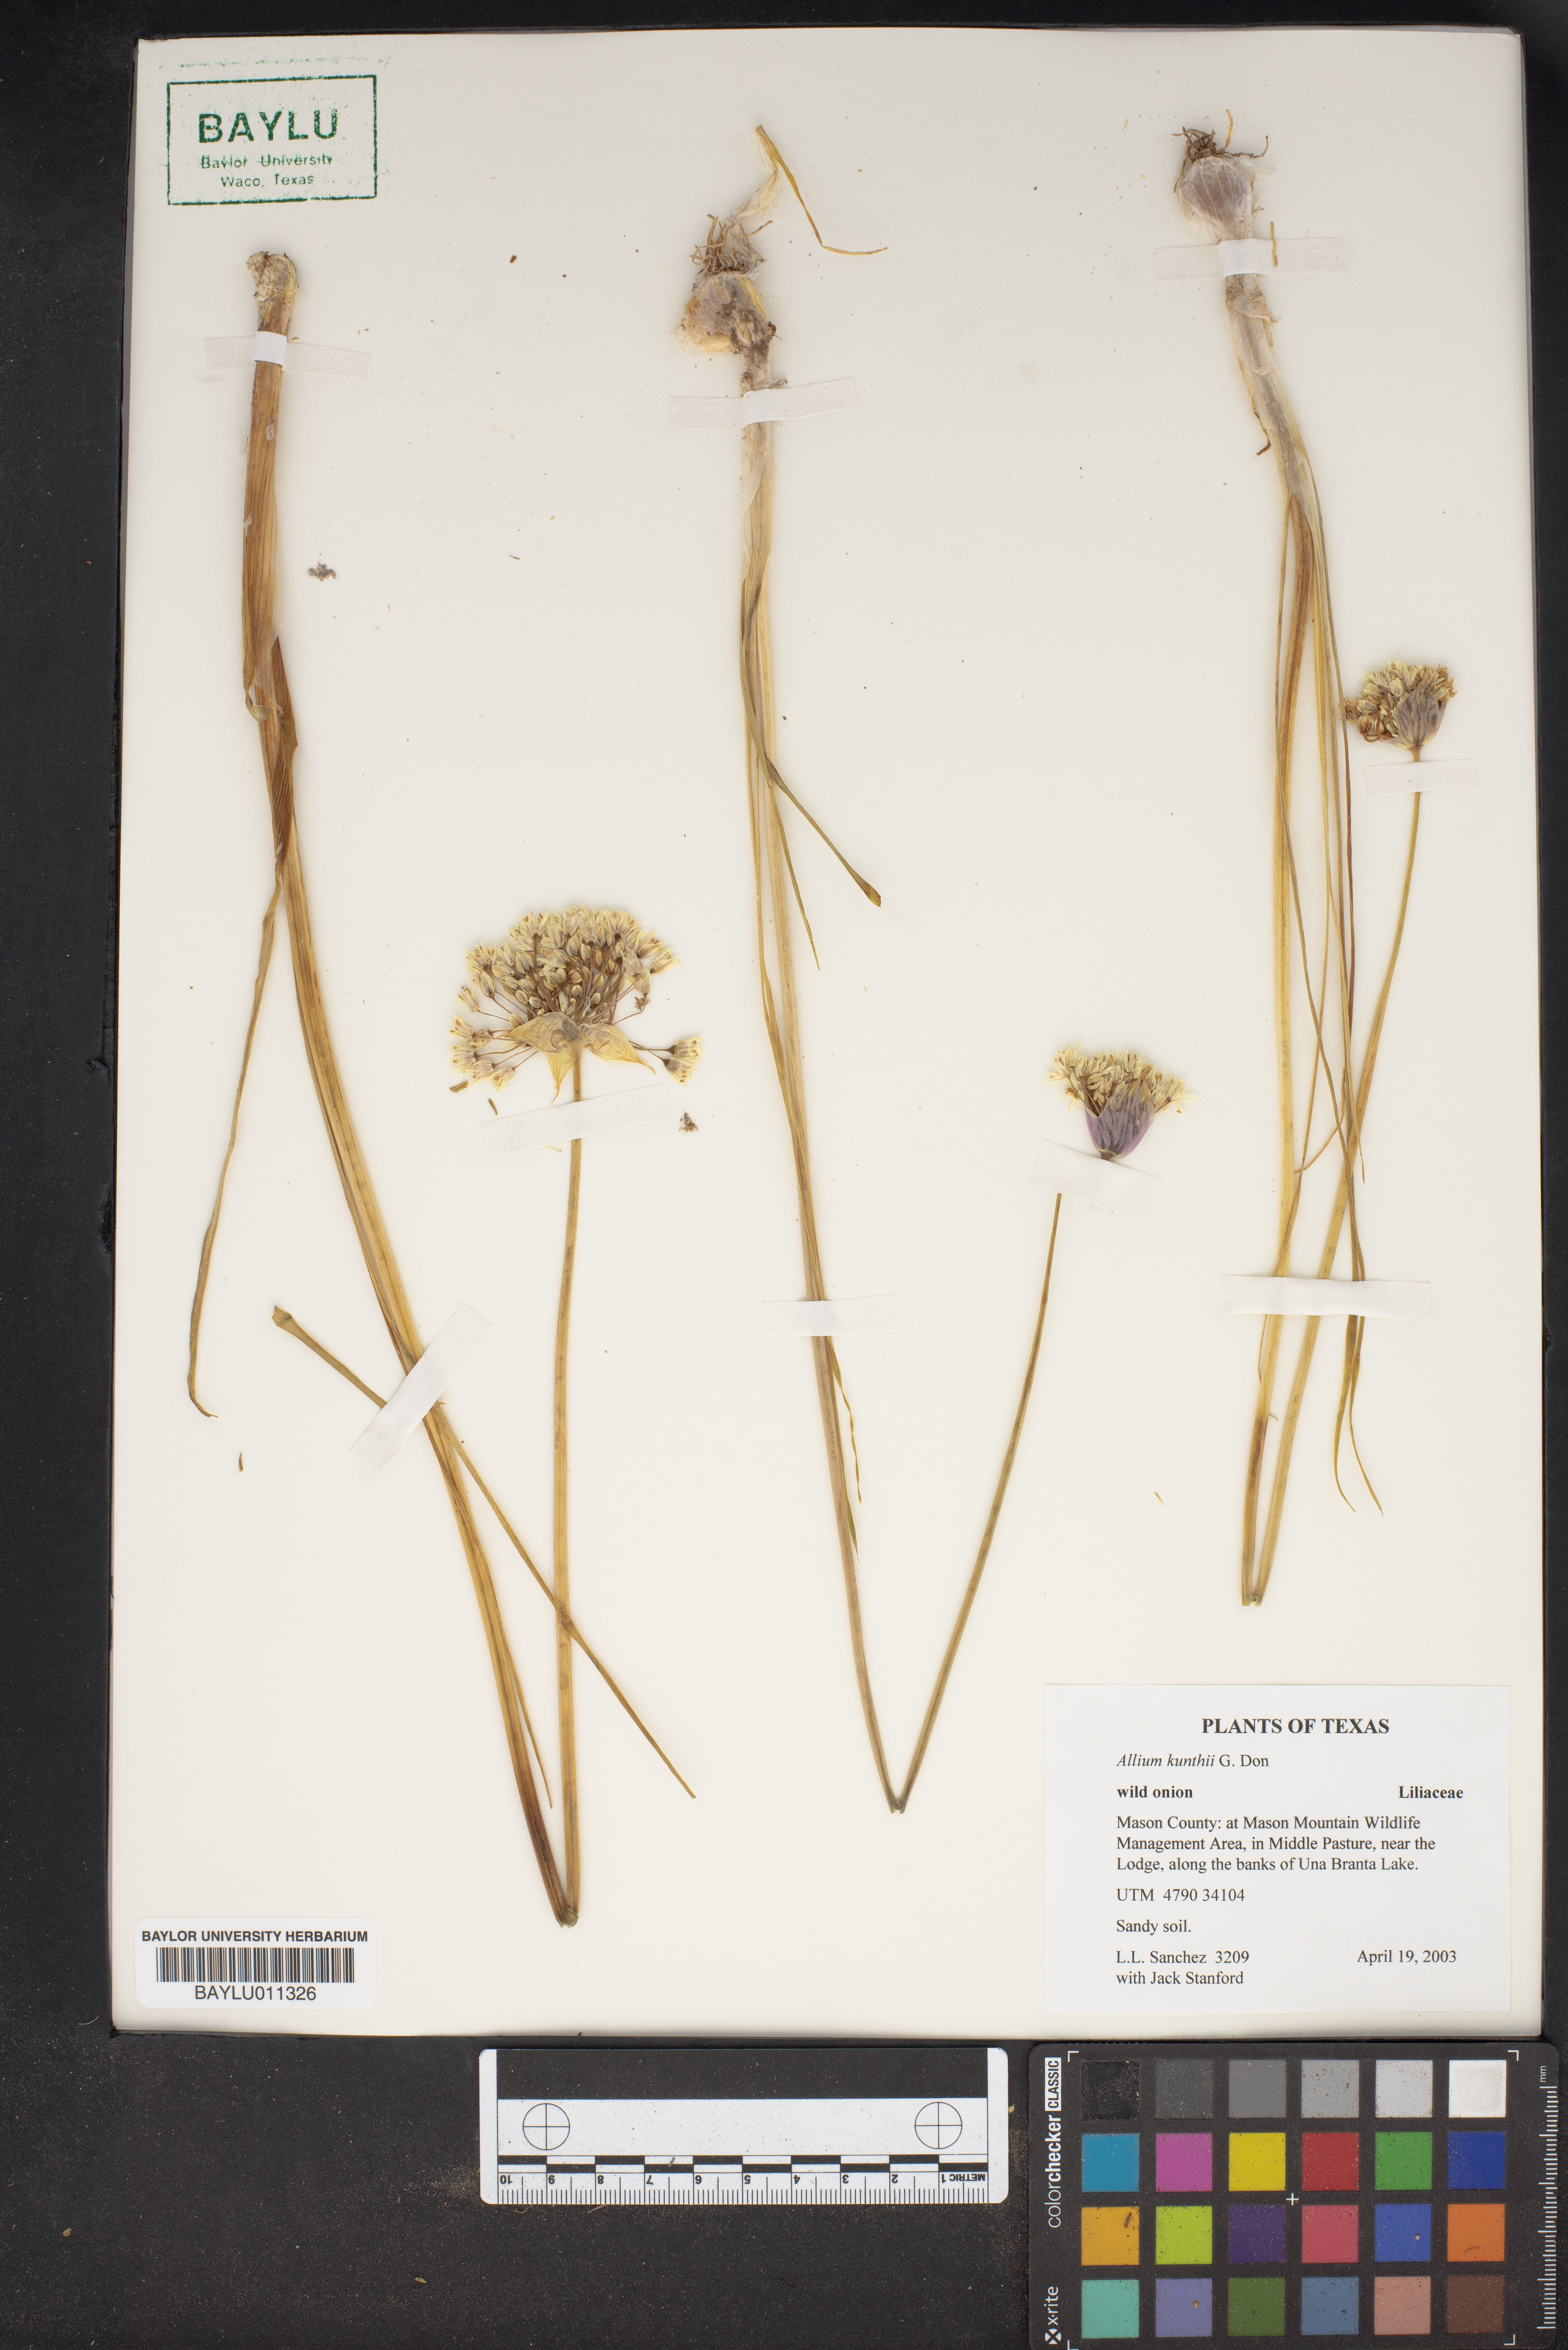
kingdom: Plantae
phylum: Tracheophyta
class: Liliopsida
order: Asparagales
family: Amaryllidaceae
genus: Allium
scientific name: Allium longifolium
